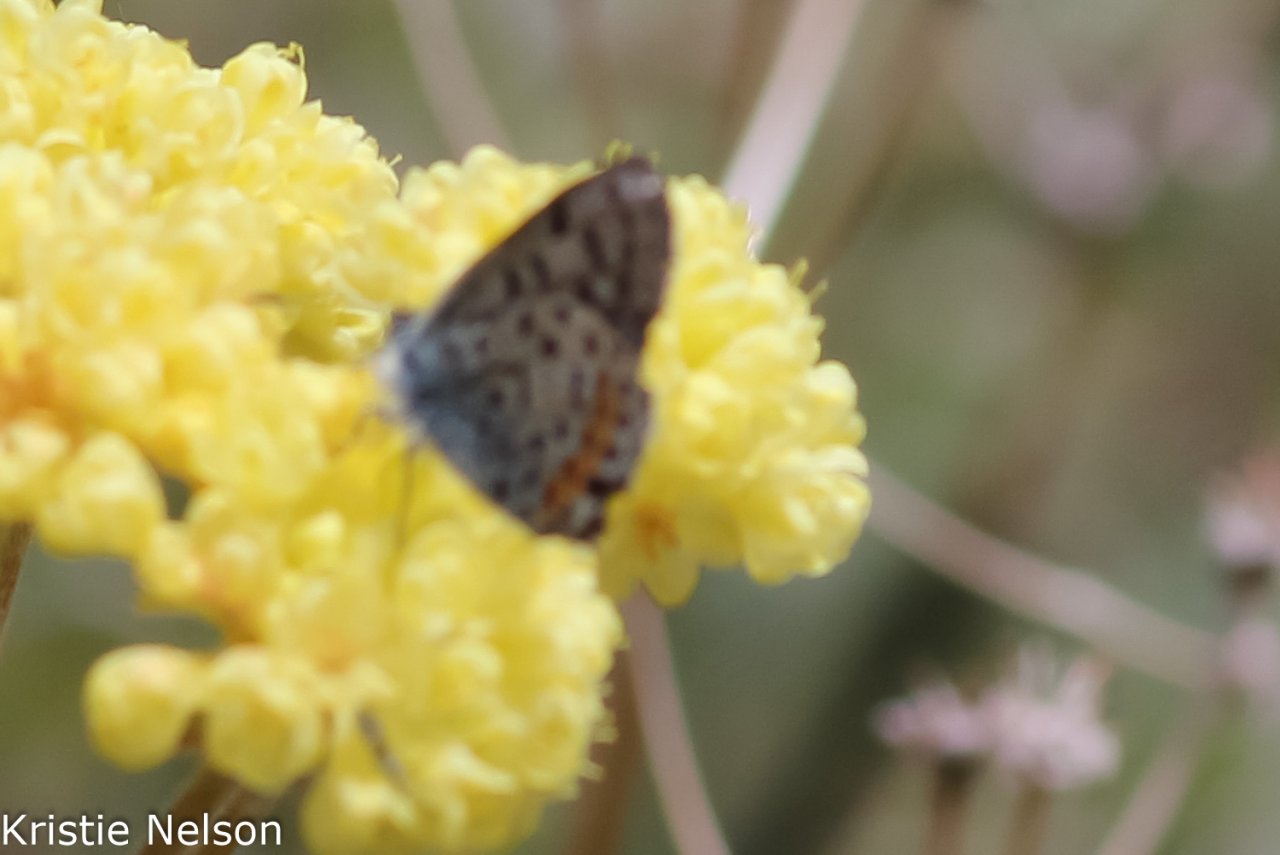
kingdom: Animalia
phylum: Arthropoda
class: Insecta
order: Lepidoptera
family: Lycaenidae
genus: Euphilotes
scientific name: Euphilotes enoptes
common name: Dotted Blue
